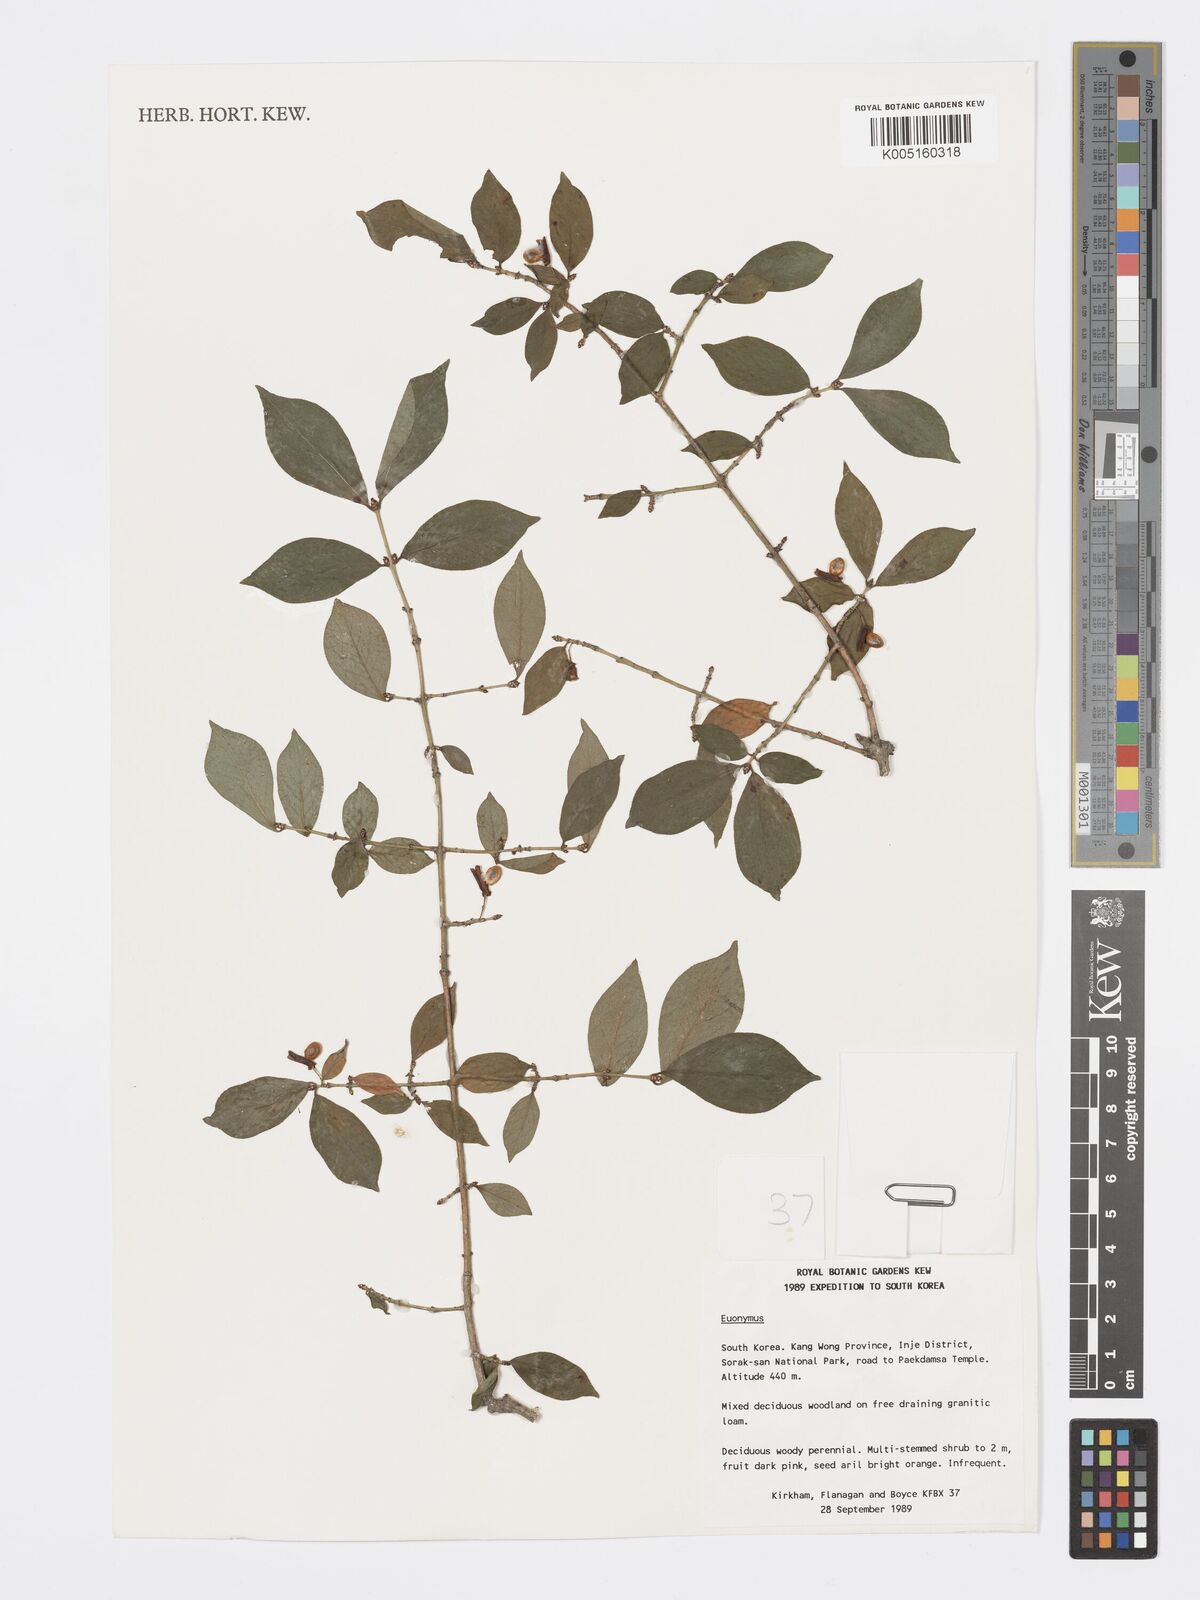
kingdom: Plantae
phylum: Tracheophyta
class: Magnoliopsida
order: Celastrales
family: Celastraceae
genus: Euonymus
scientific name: Euonymus
